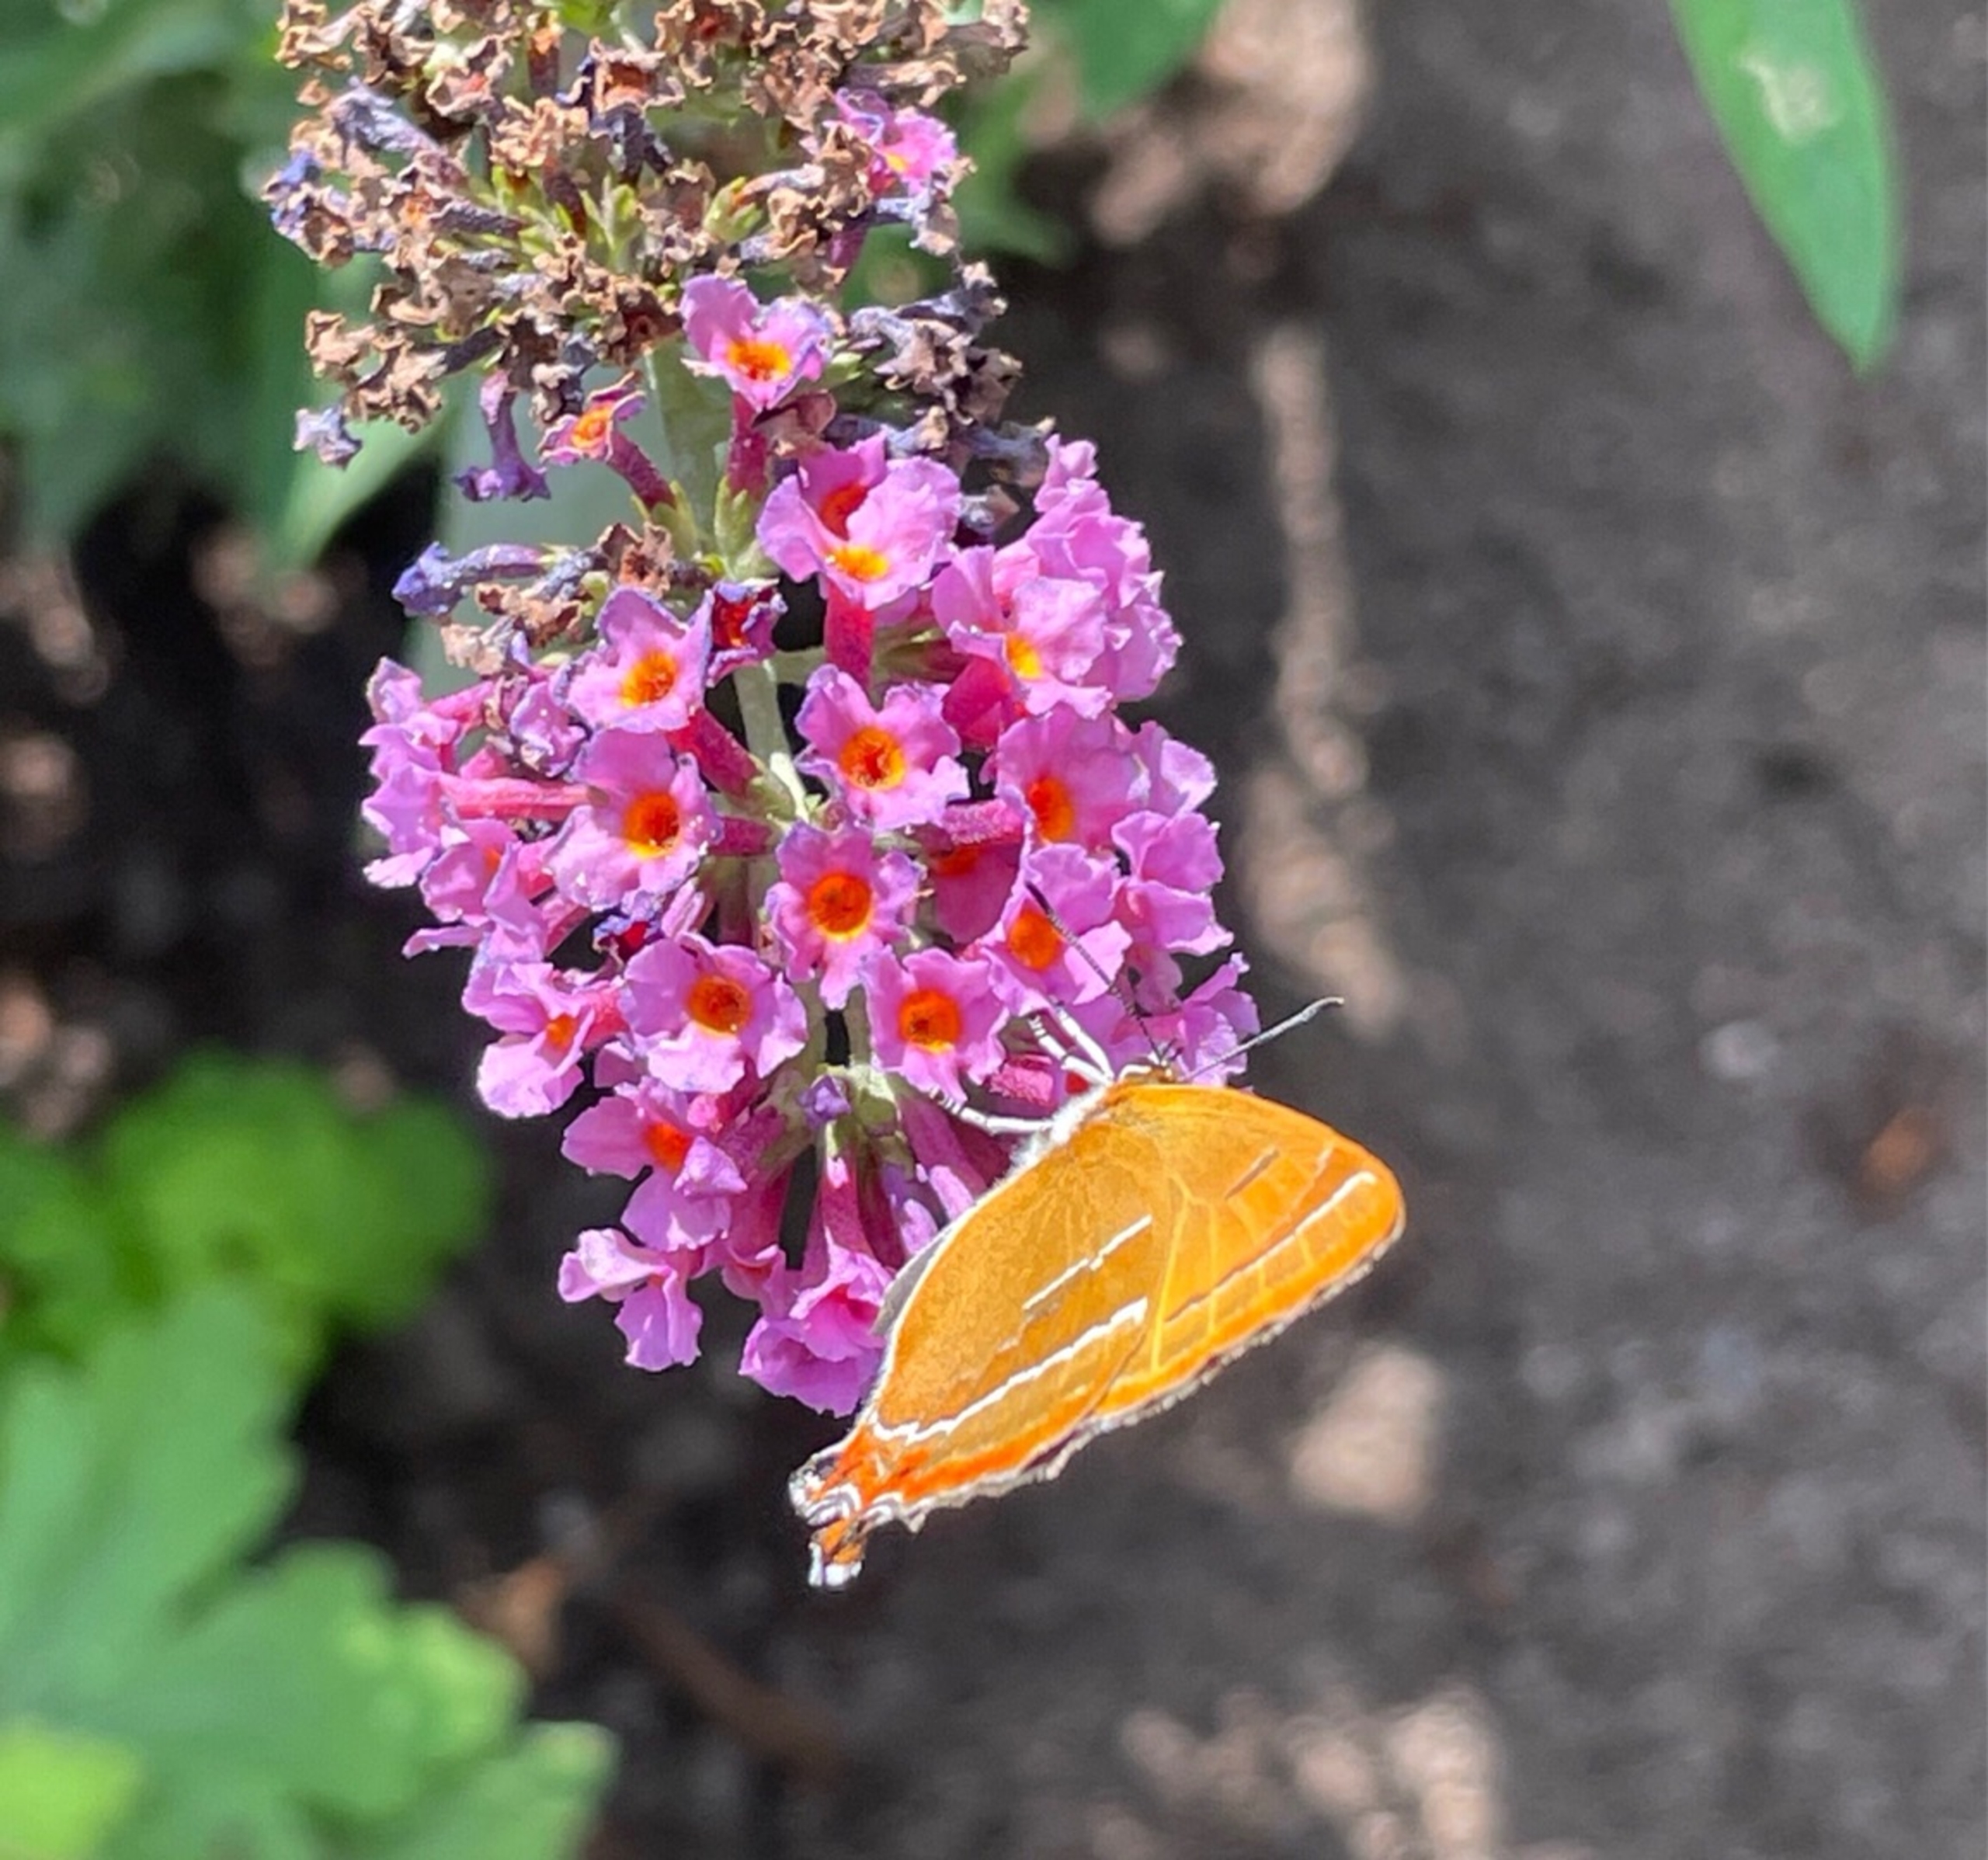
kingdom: Animalia
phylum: Arthropoda
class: Insecta
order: Lepidoptera
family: Lycaenidae
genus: Thecla
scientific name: Thecla betulae
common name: Guldhale
